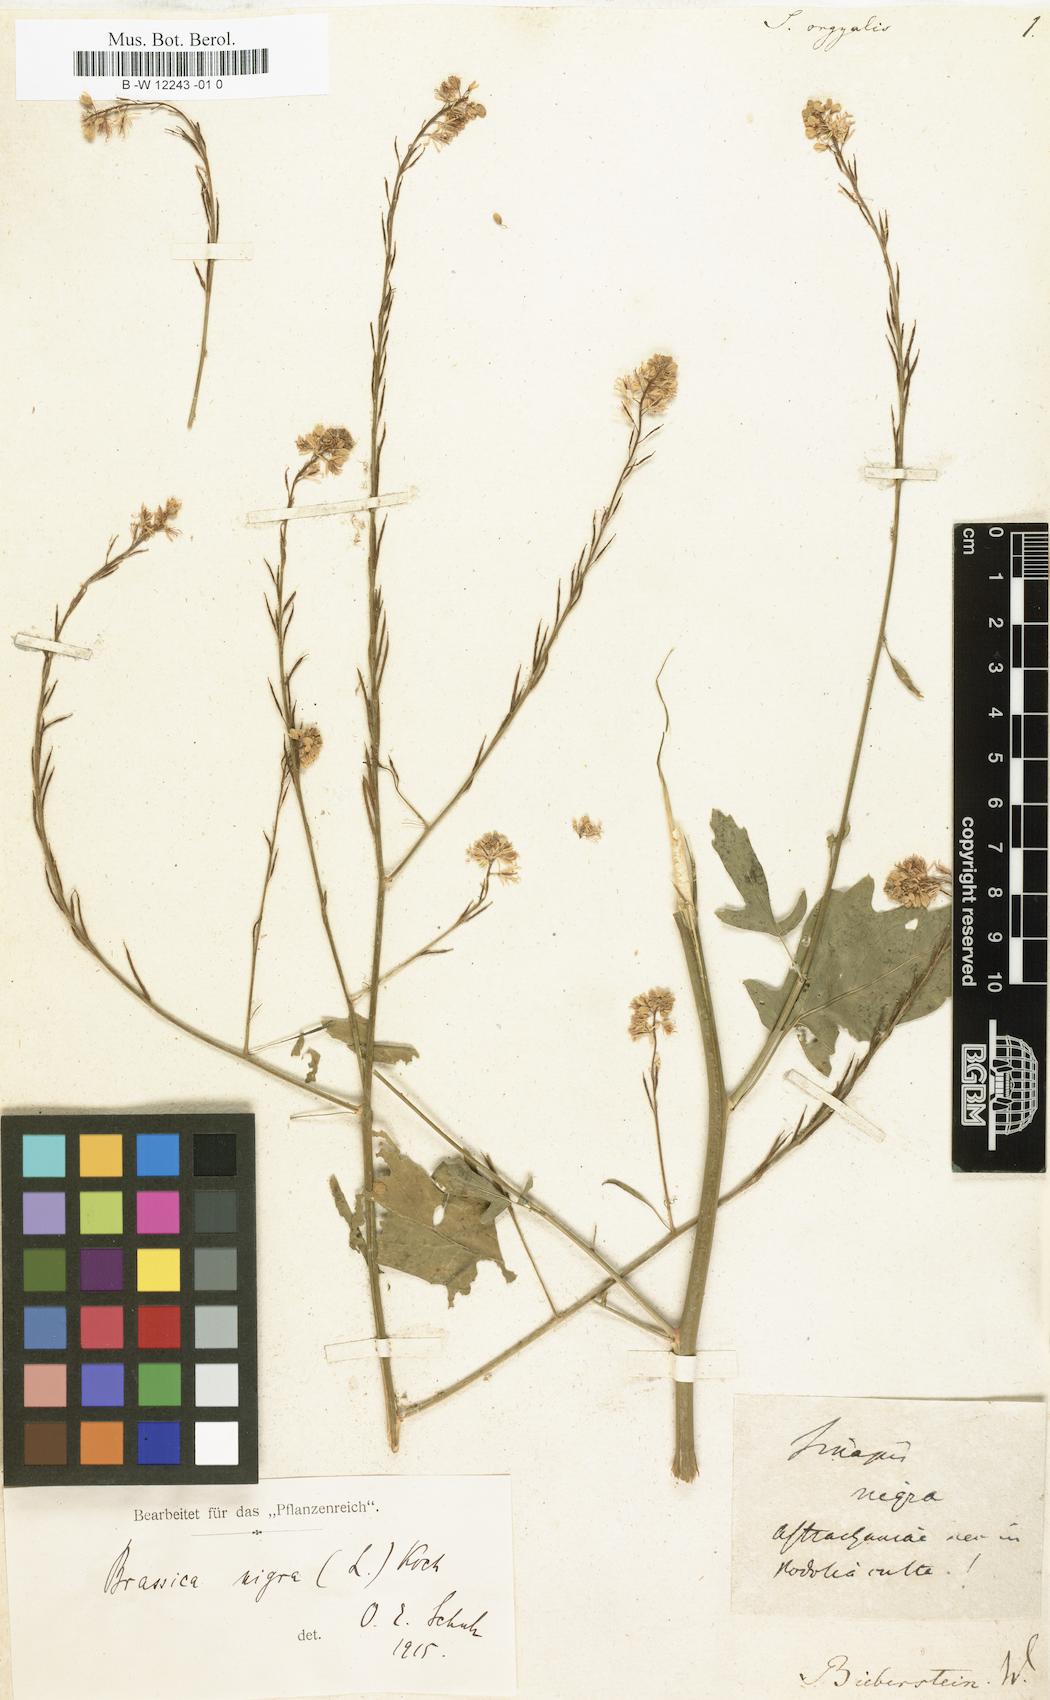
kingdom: Plantae
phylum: Tracheophyta
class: Magnoliopsida
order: Brassicales
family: Brassicaceae
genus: Brassica
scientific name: Brassica nigra
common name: Black mustard
